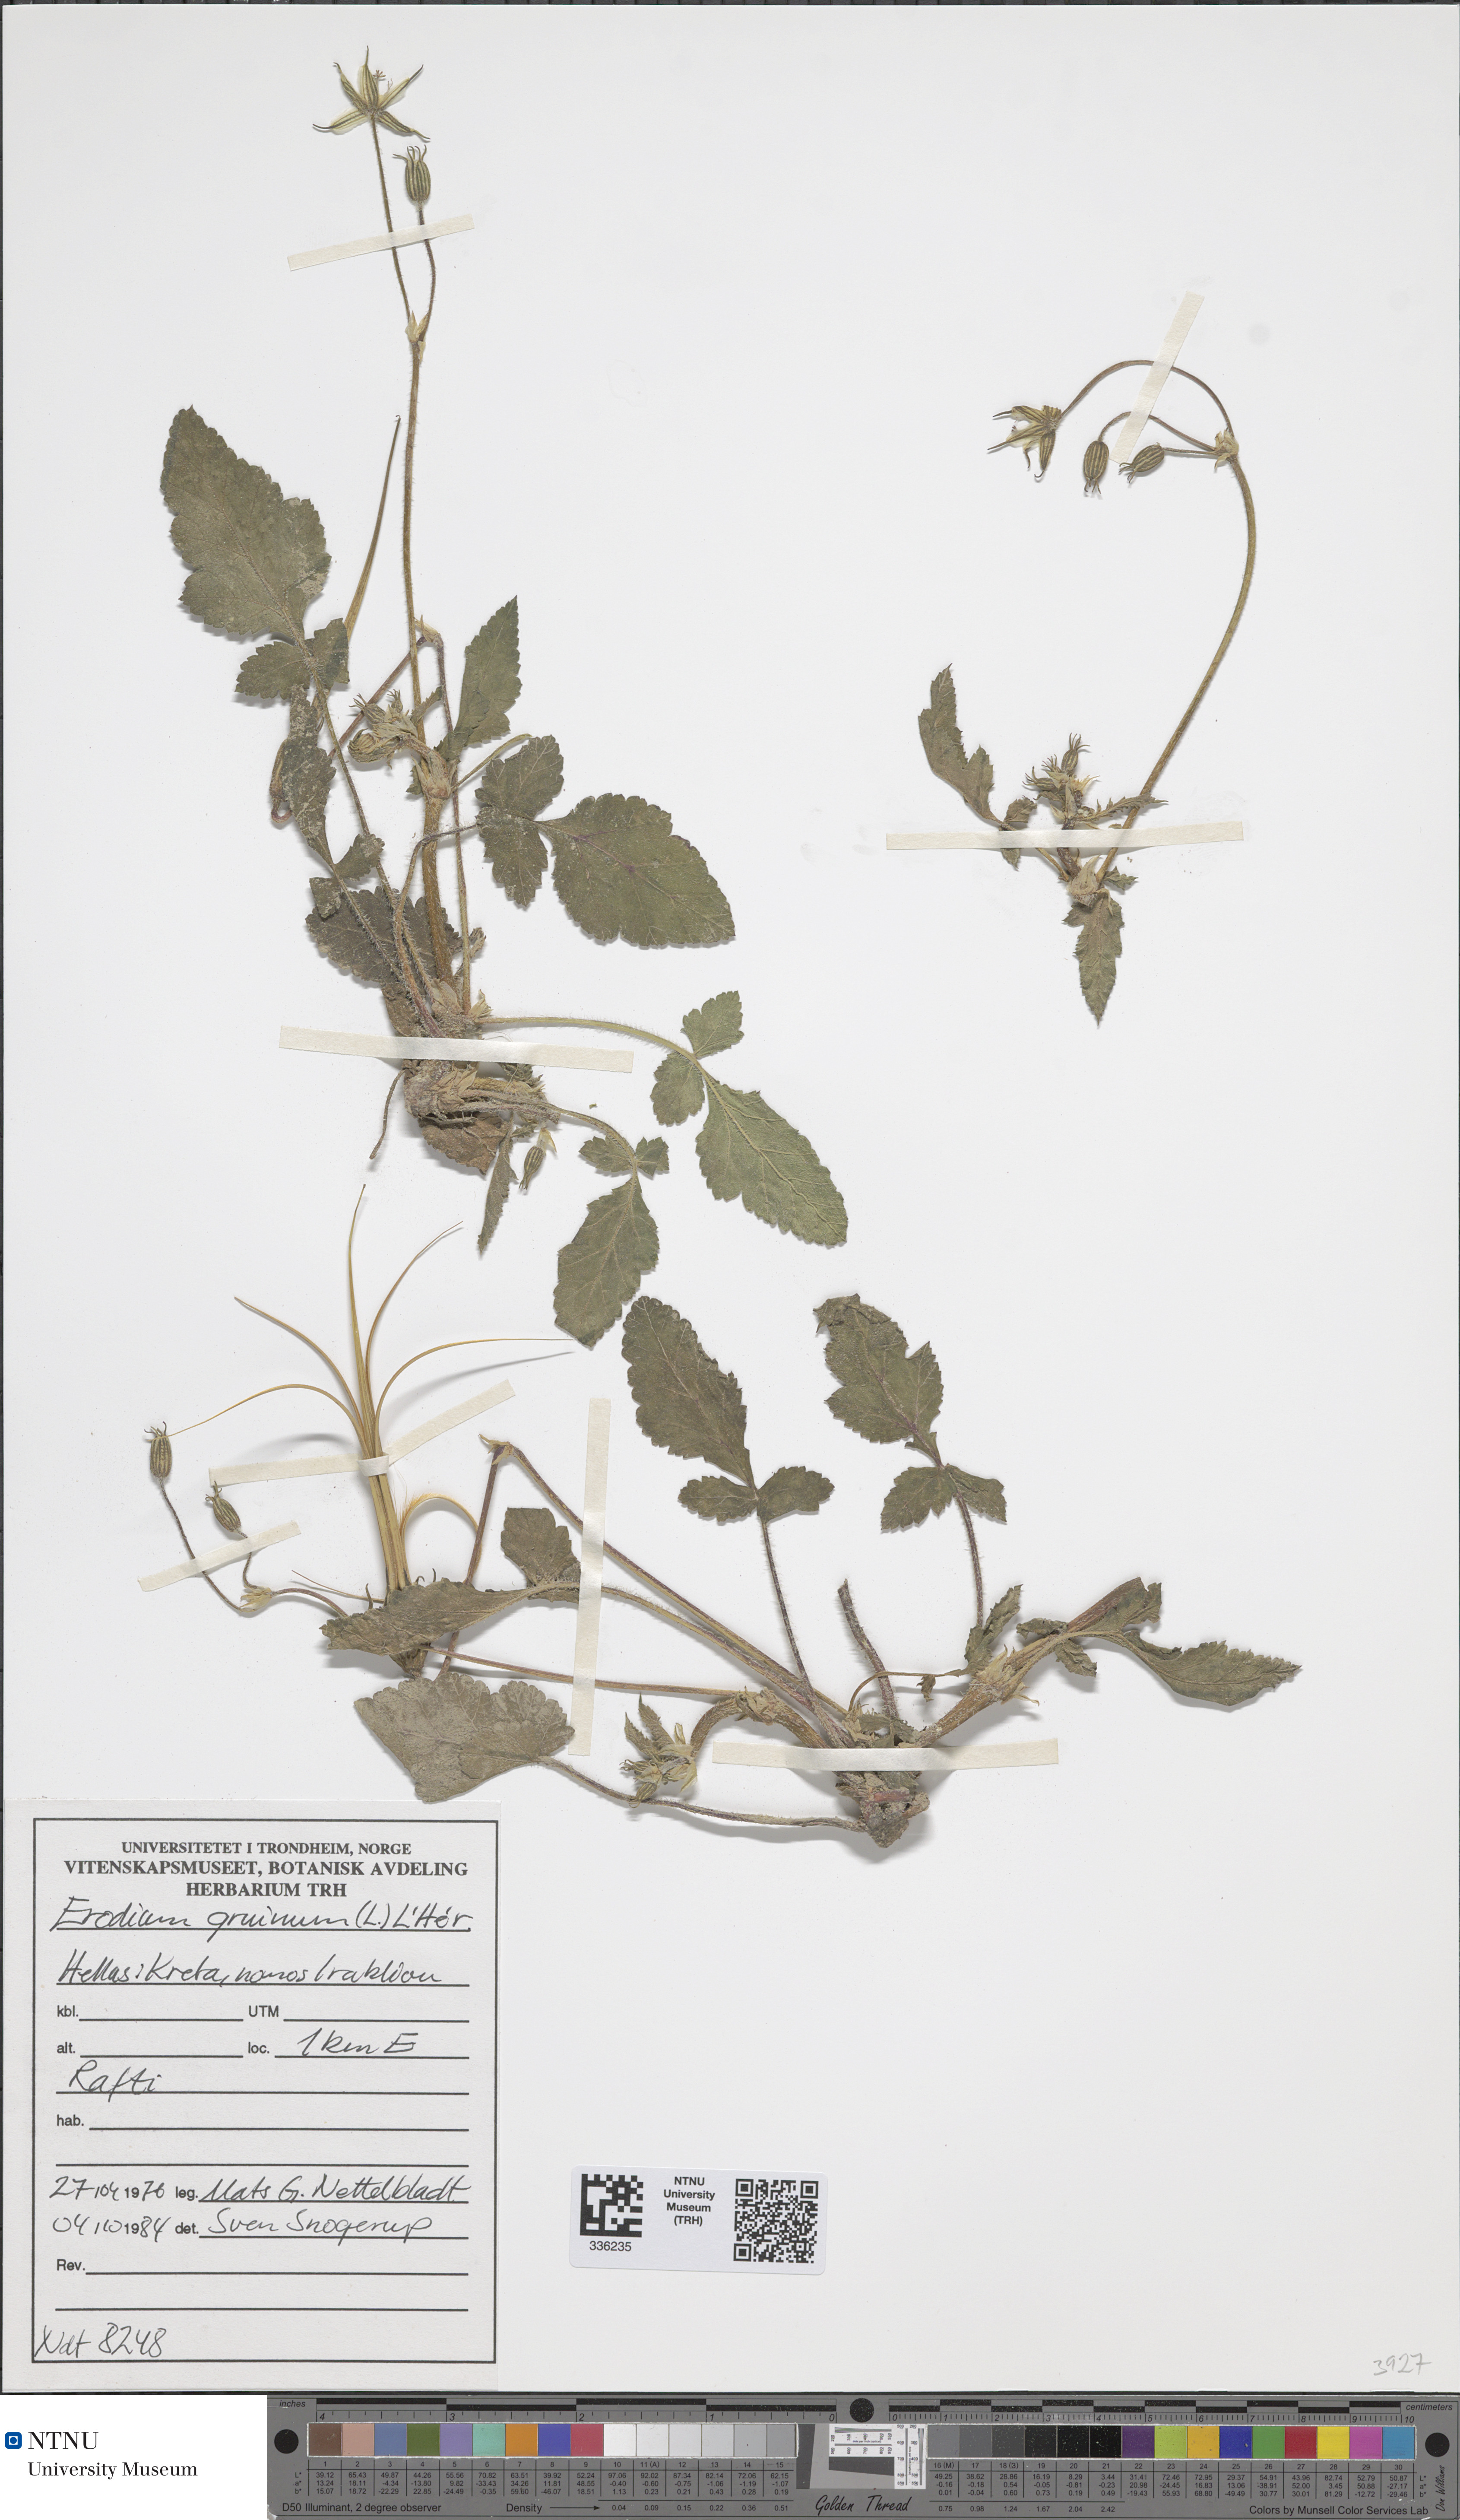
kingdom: Plantae
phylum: Tracheophyta
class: Magnoliopsida
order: Geraniales
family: Geraniaceae
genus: Erodium
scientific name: Erodium gruinum
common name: Iranian stork's bill
